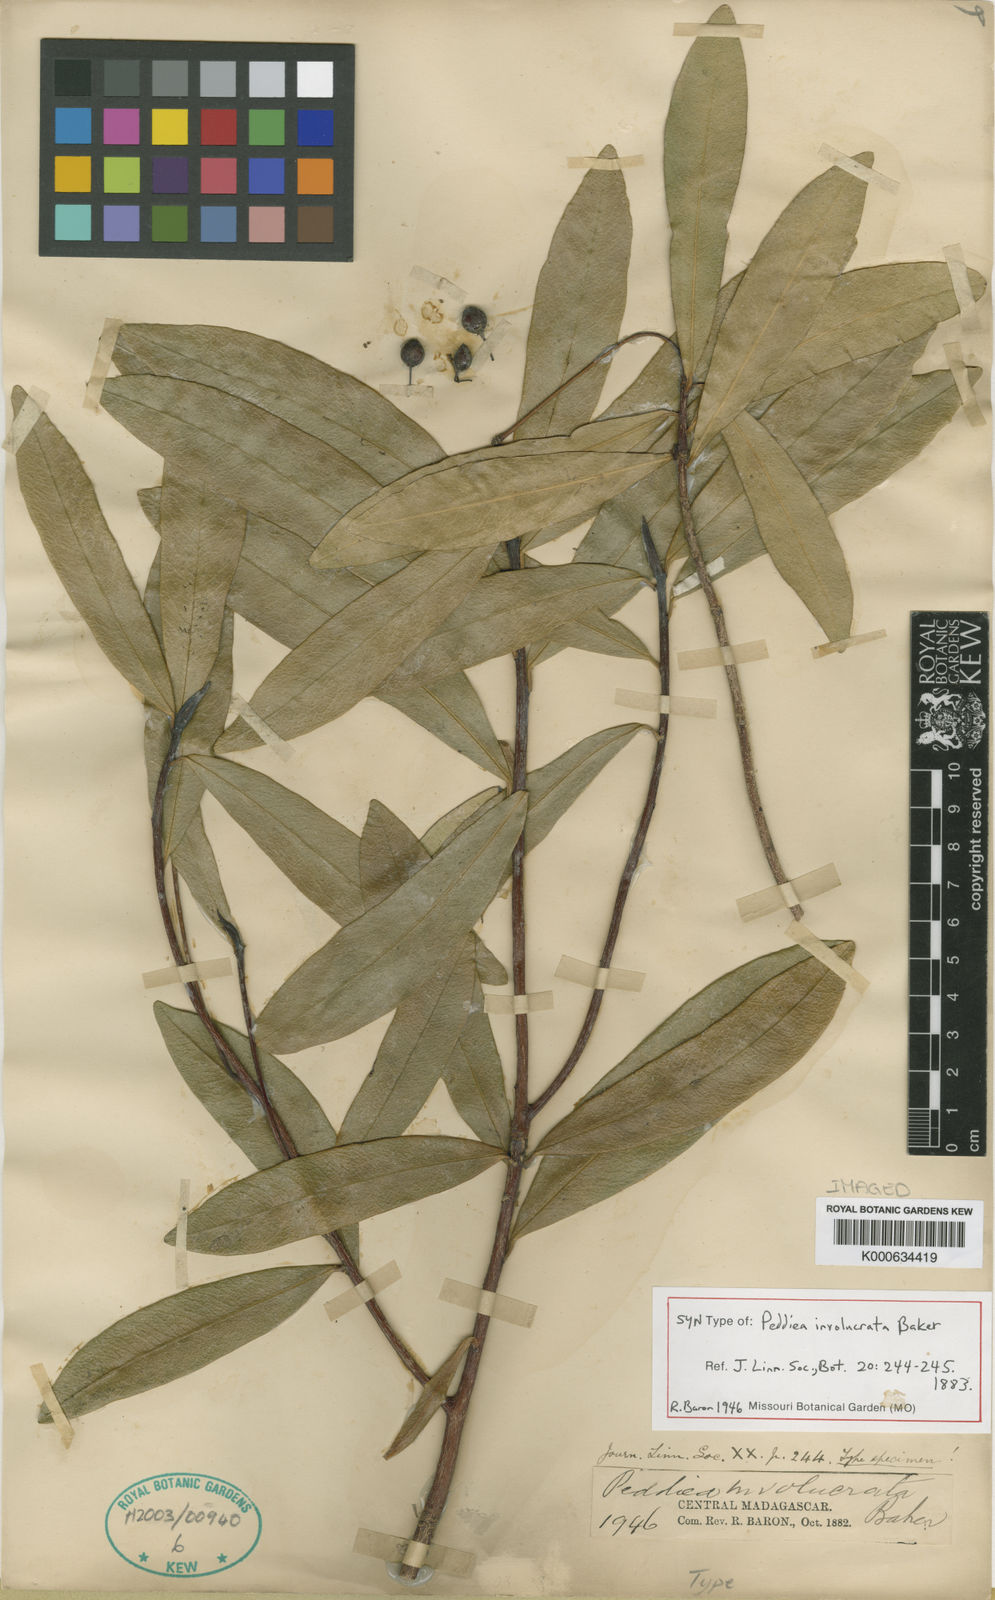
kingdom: Plantae
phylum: Tracheophyta
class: Magnoliopsida
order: Malvales
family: Thymelaeaceae
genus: Peddiea
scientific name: Peddiea involucrata
